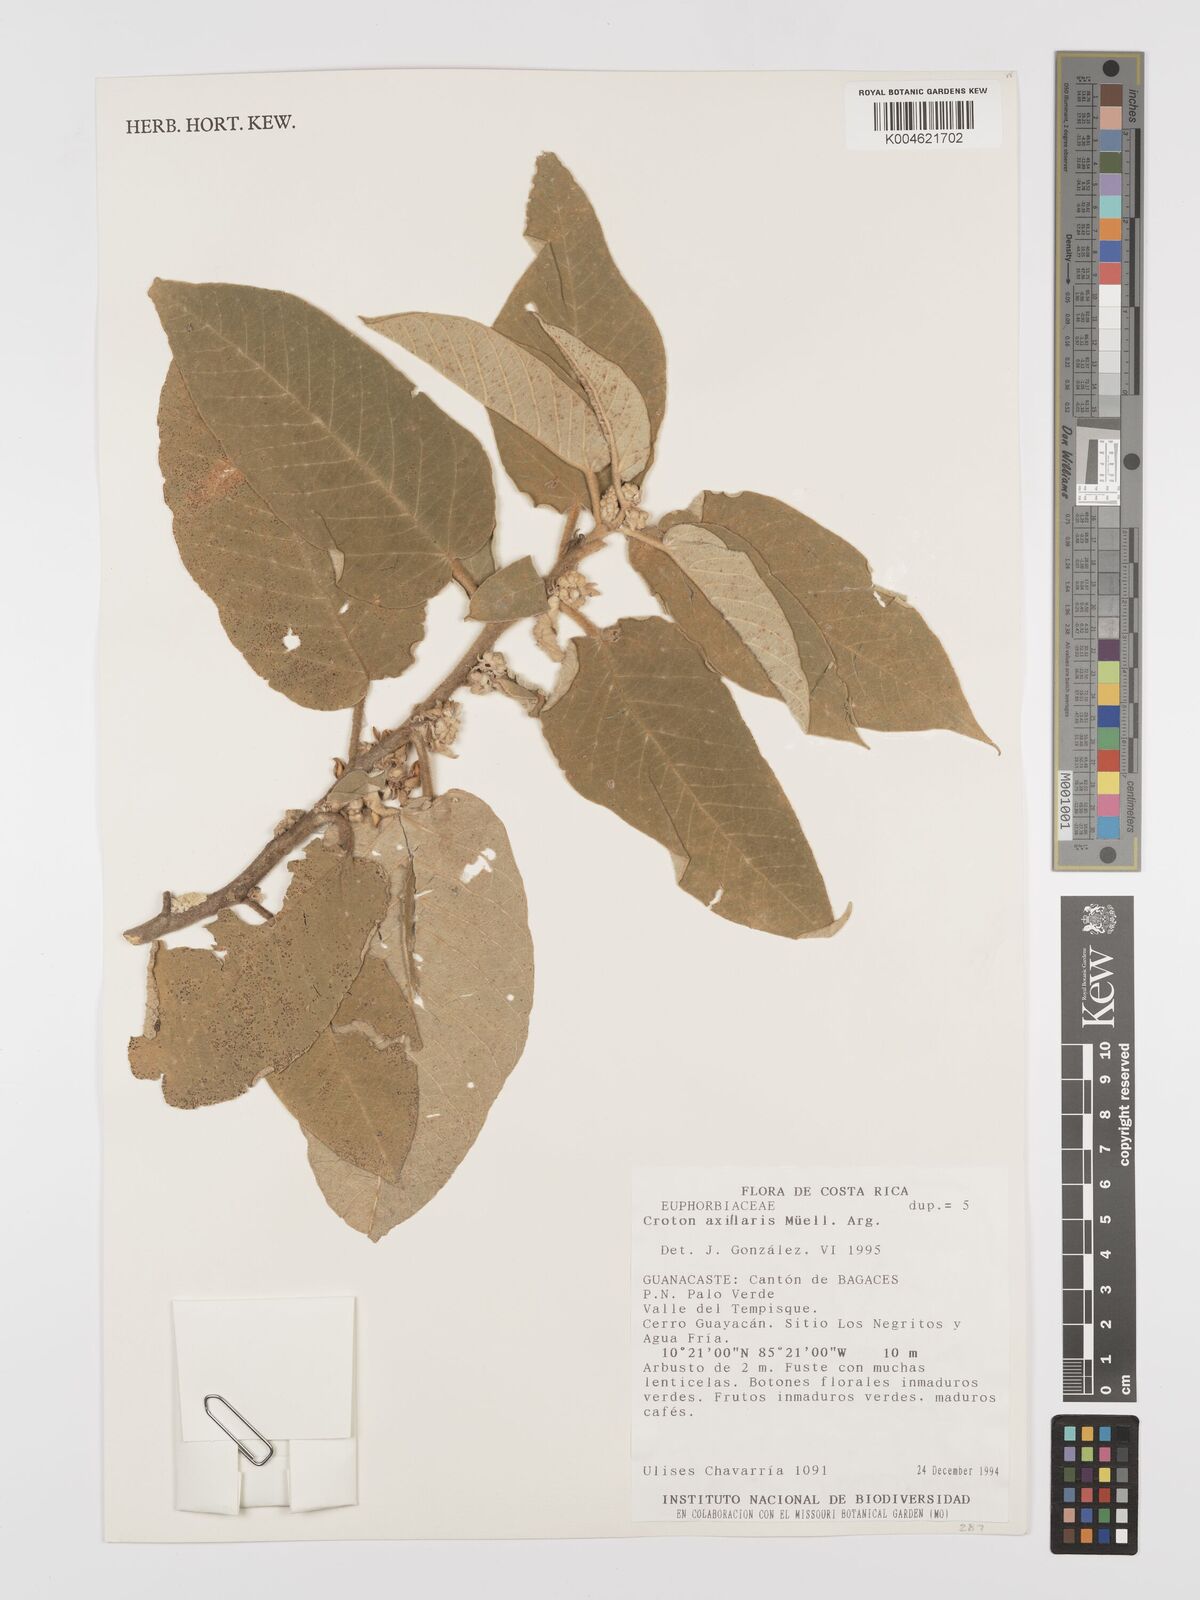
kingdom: Plantae
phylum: Tracheophyta
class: Magnoliopsida
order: Malpighiales
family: Euphorbiaceae
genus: Croton
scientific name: Croton axillaris
